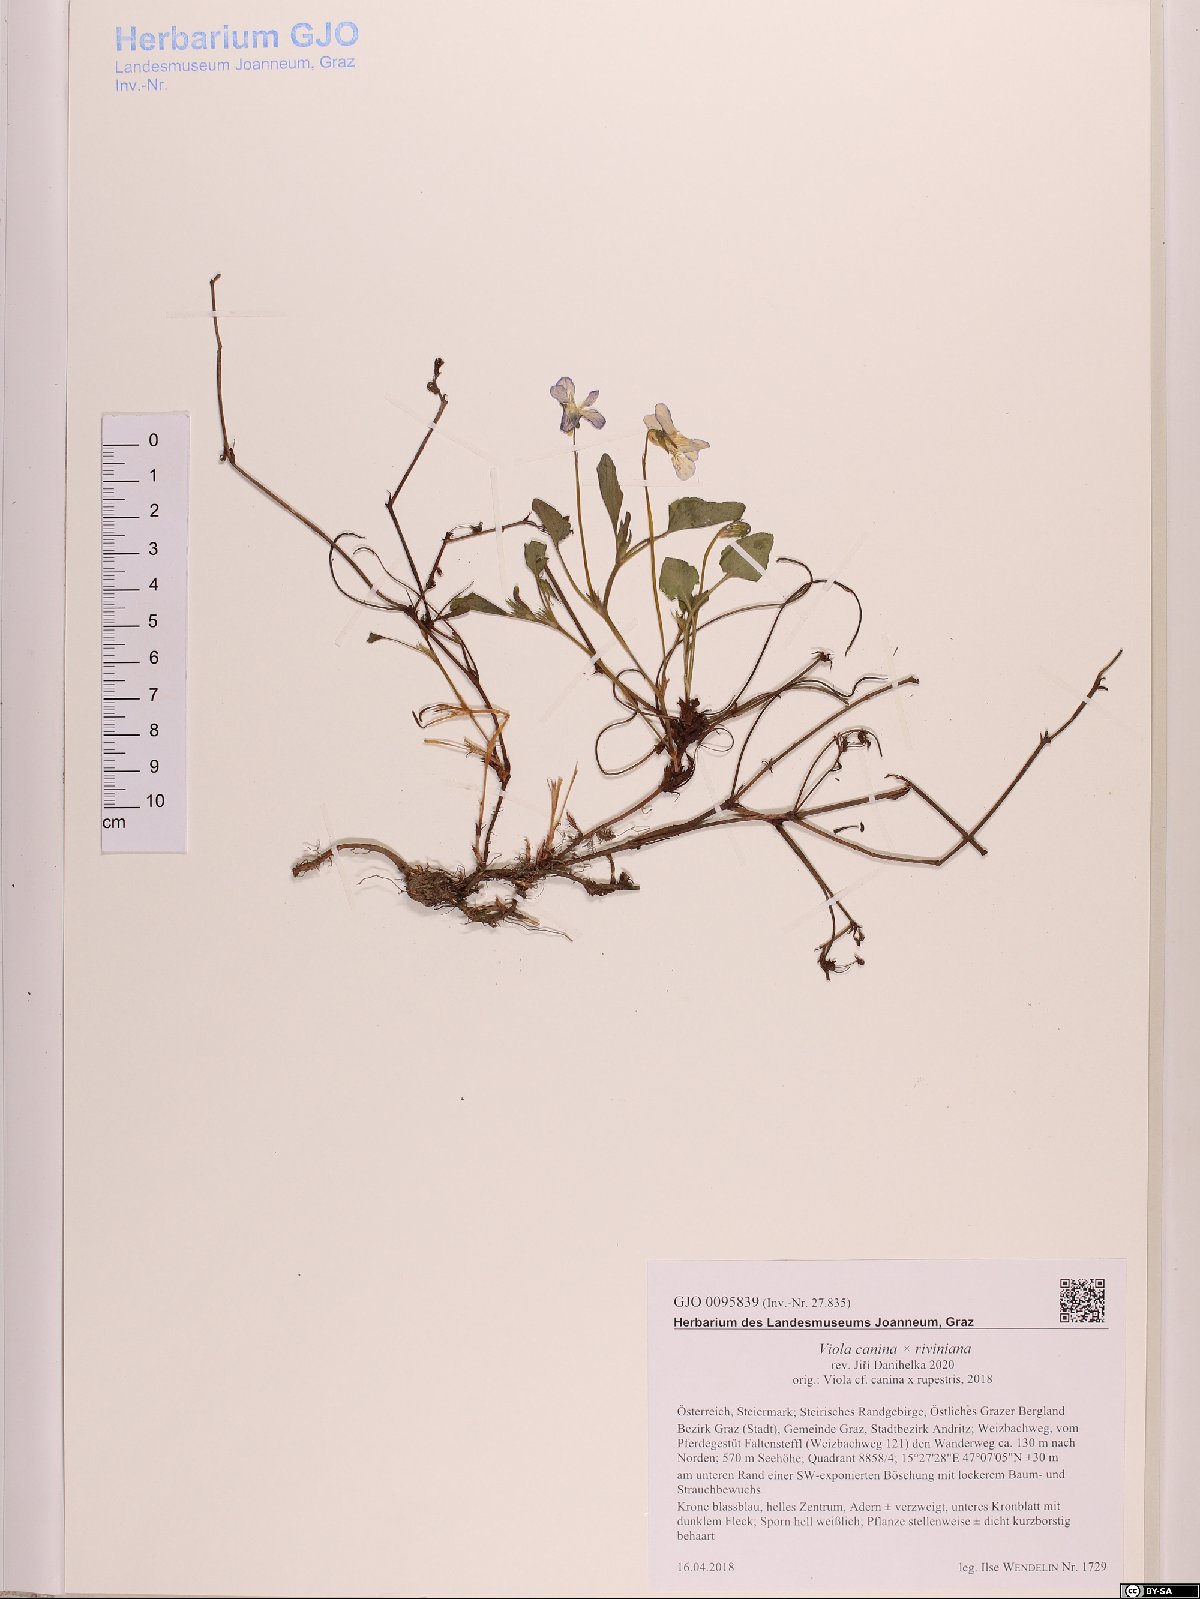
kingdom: Plantae
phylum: Tracheophyta
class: Magnoliopsida
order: Malpighiales
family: Violaceae
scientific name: Violaceae
